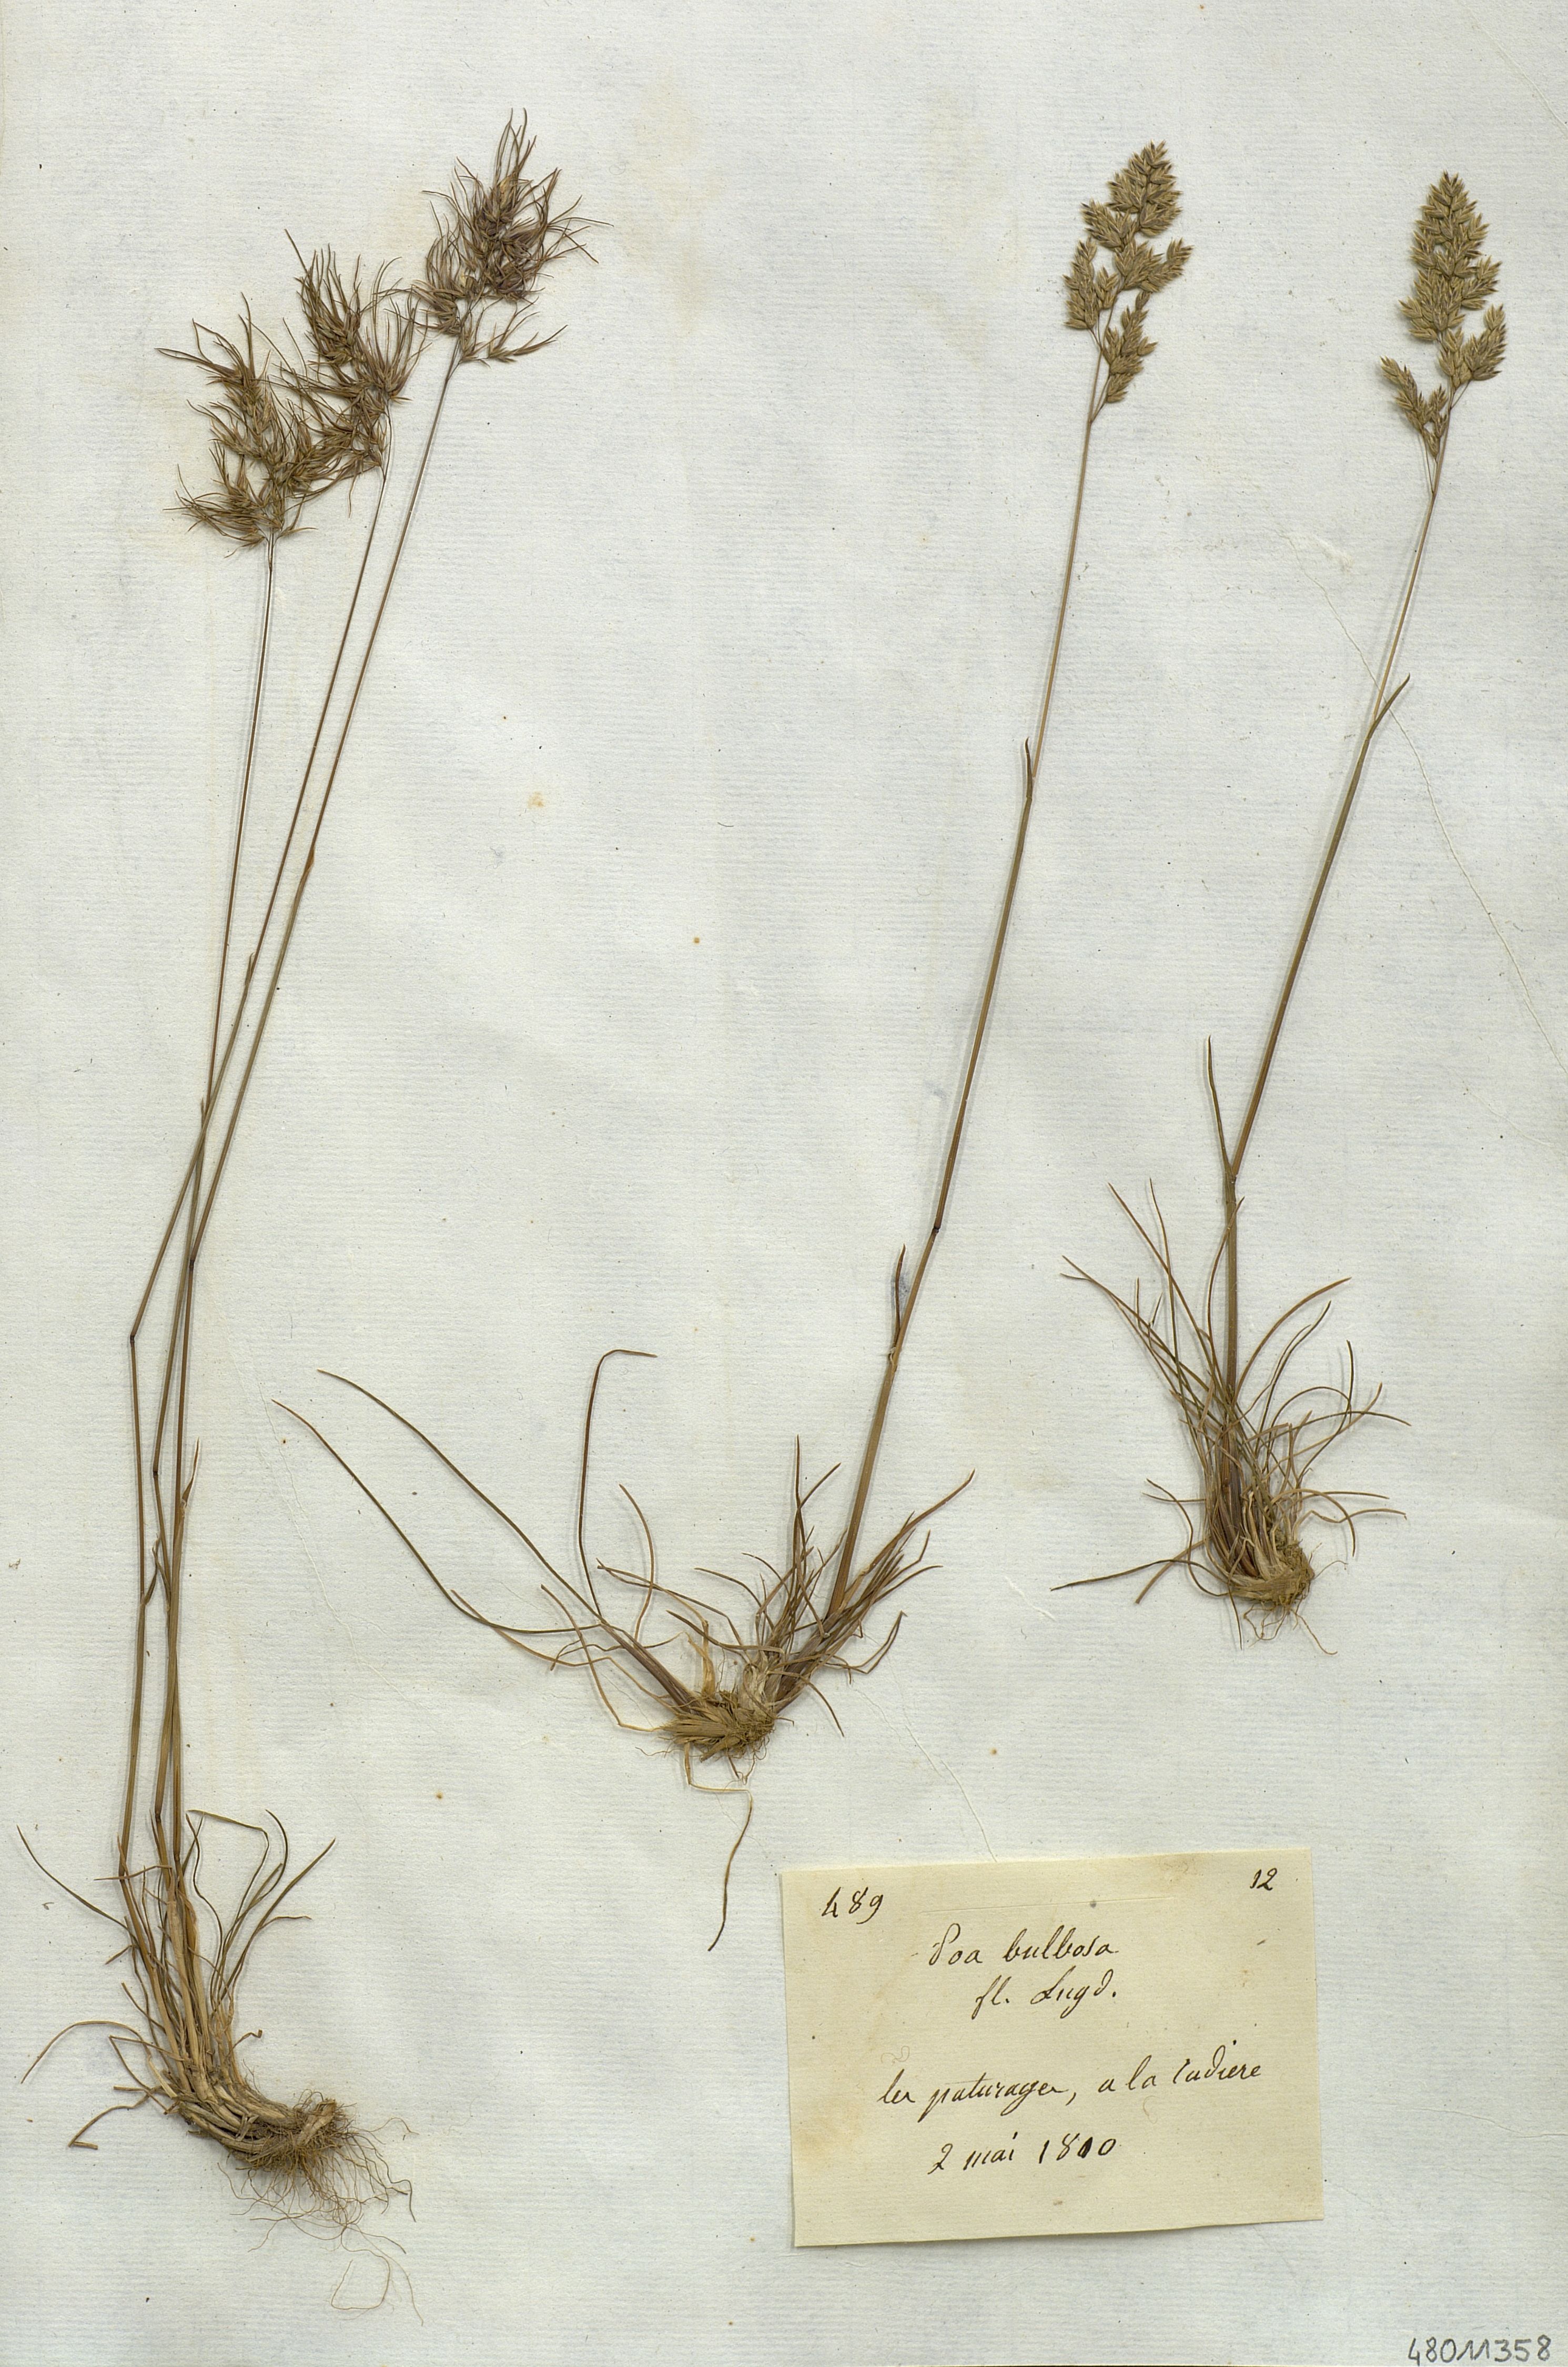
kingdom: Plantae
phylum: Tracheophyta
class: Liliopsida
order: Poales
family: Poaceae
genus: Poa
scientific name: Poa bulbosa
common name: Bulbous bluegrass
